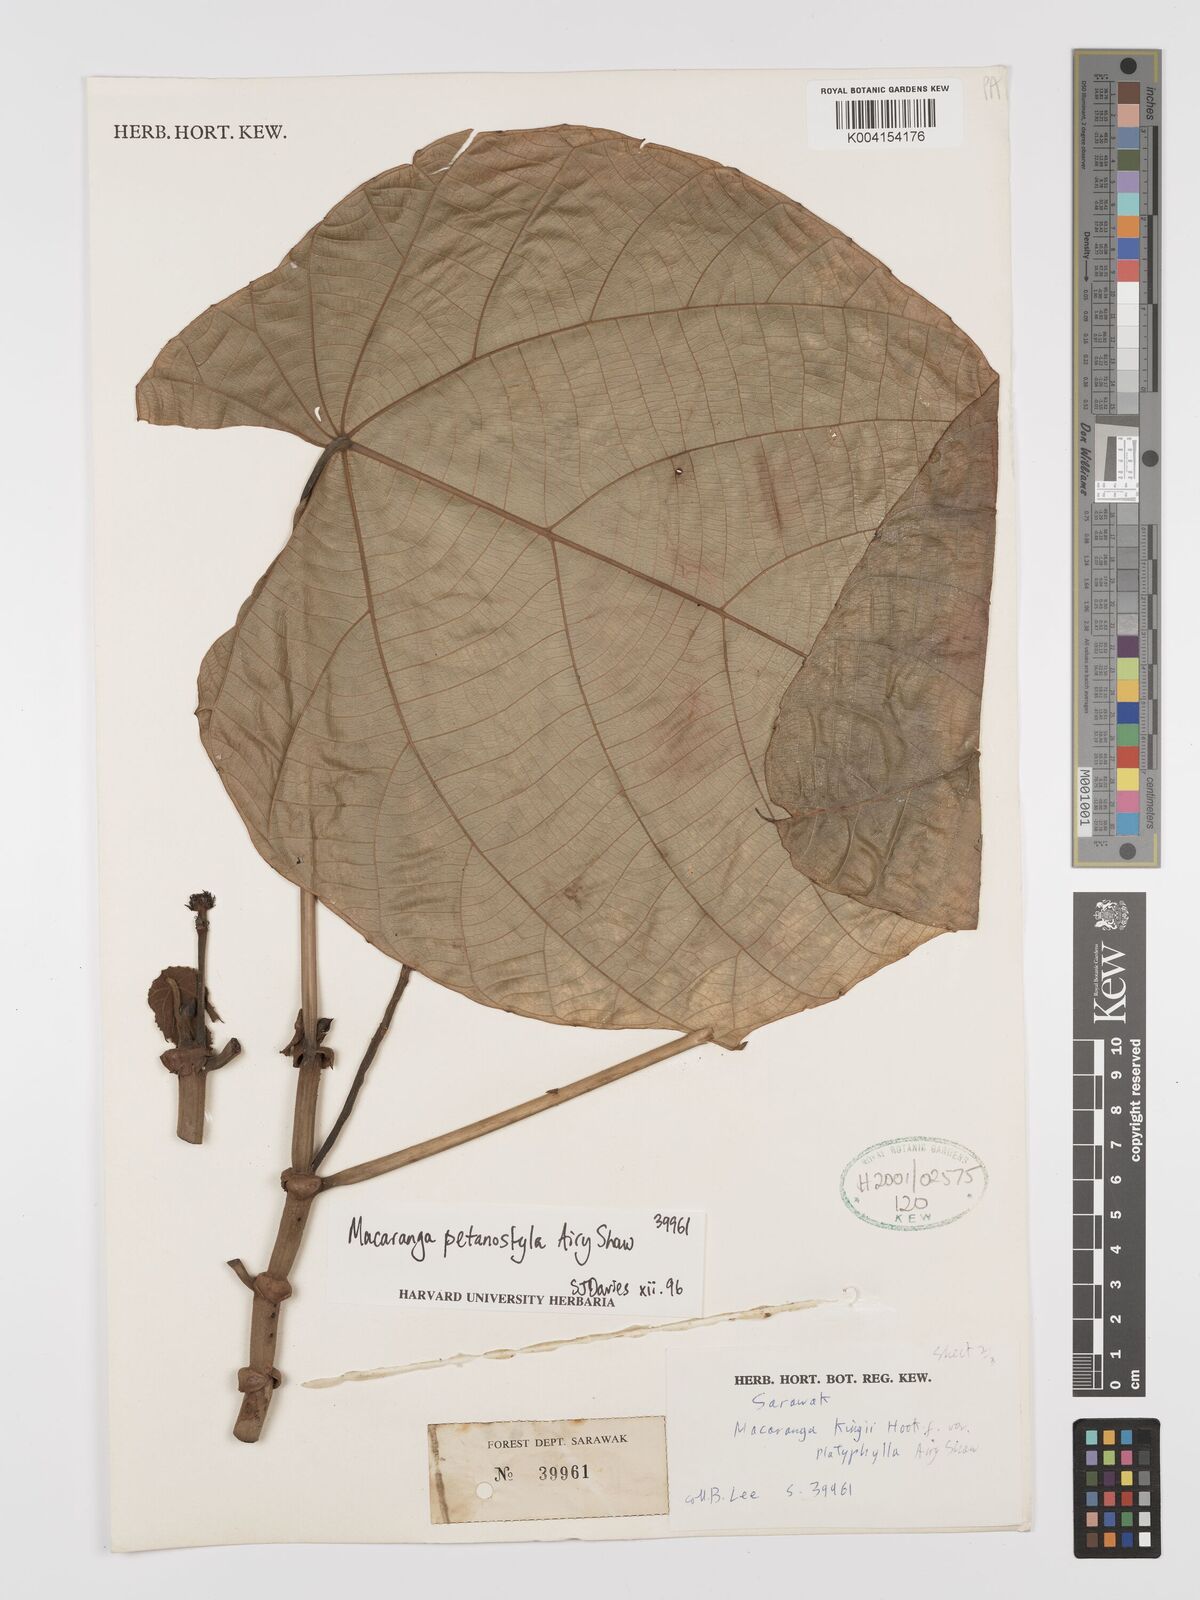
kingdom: Plantae
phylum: Tracheophyta
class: Magnoliopsida
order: Malpighiales
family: Euphorbiaceae
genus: Macaranga
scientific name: Macaranga petanostyla
